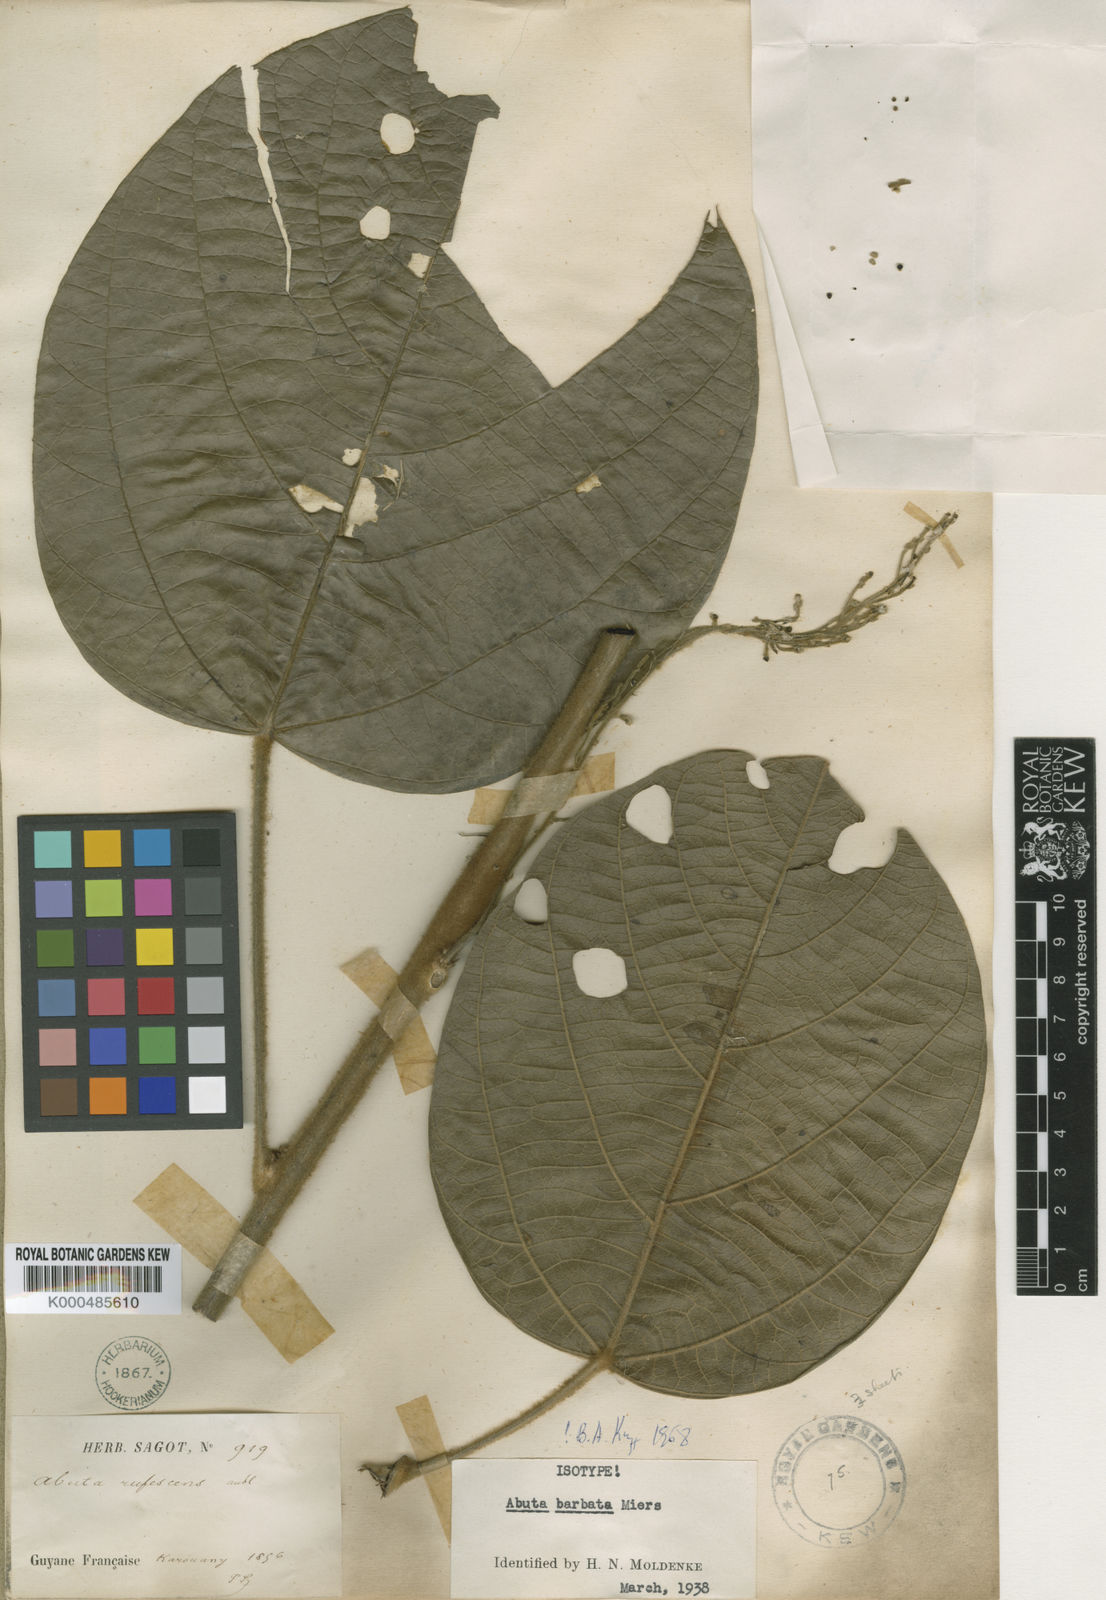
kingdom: Plantae
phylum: Tracheophyta
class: Magnoliopsida
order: Ranunculales
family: Menispermaceae
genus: Abuta
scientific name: Abuta barbata
